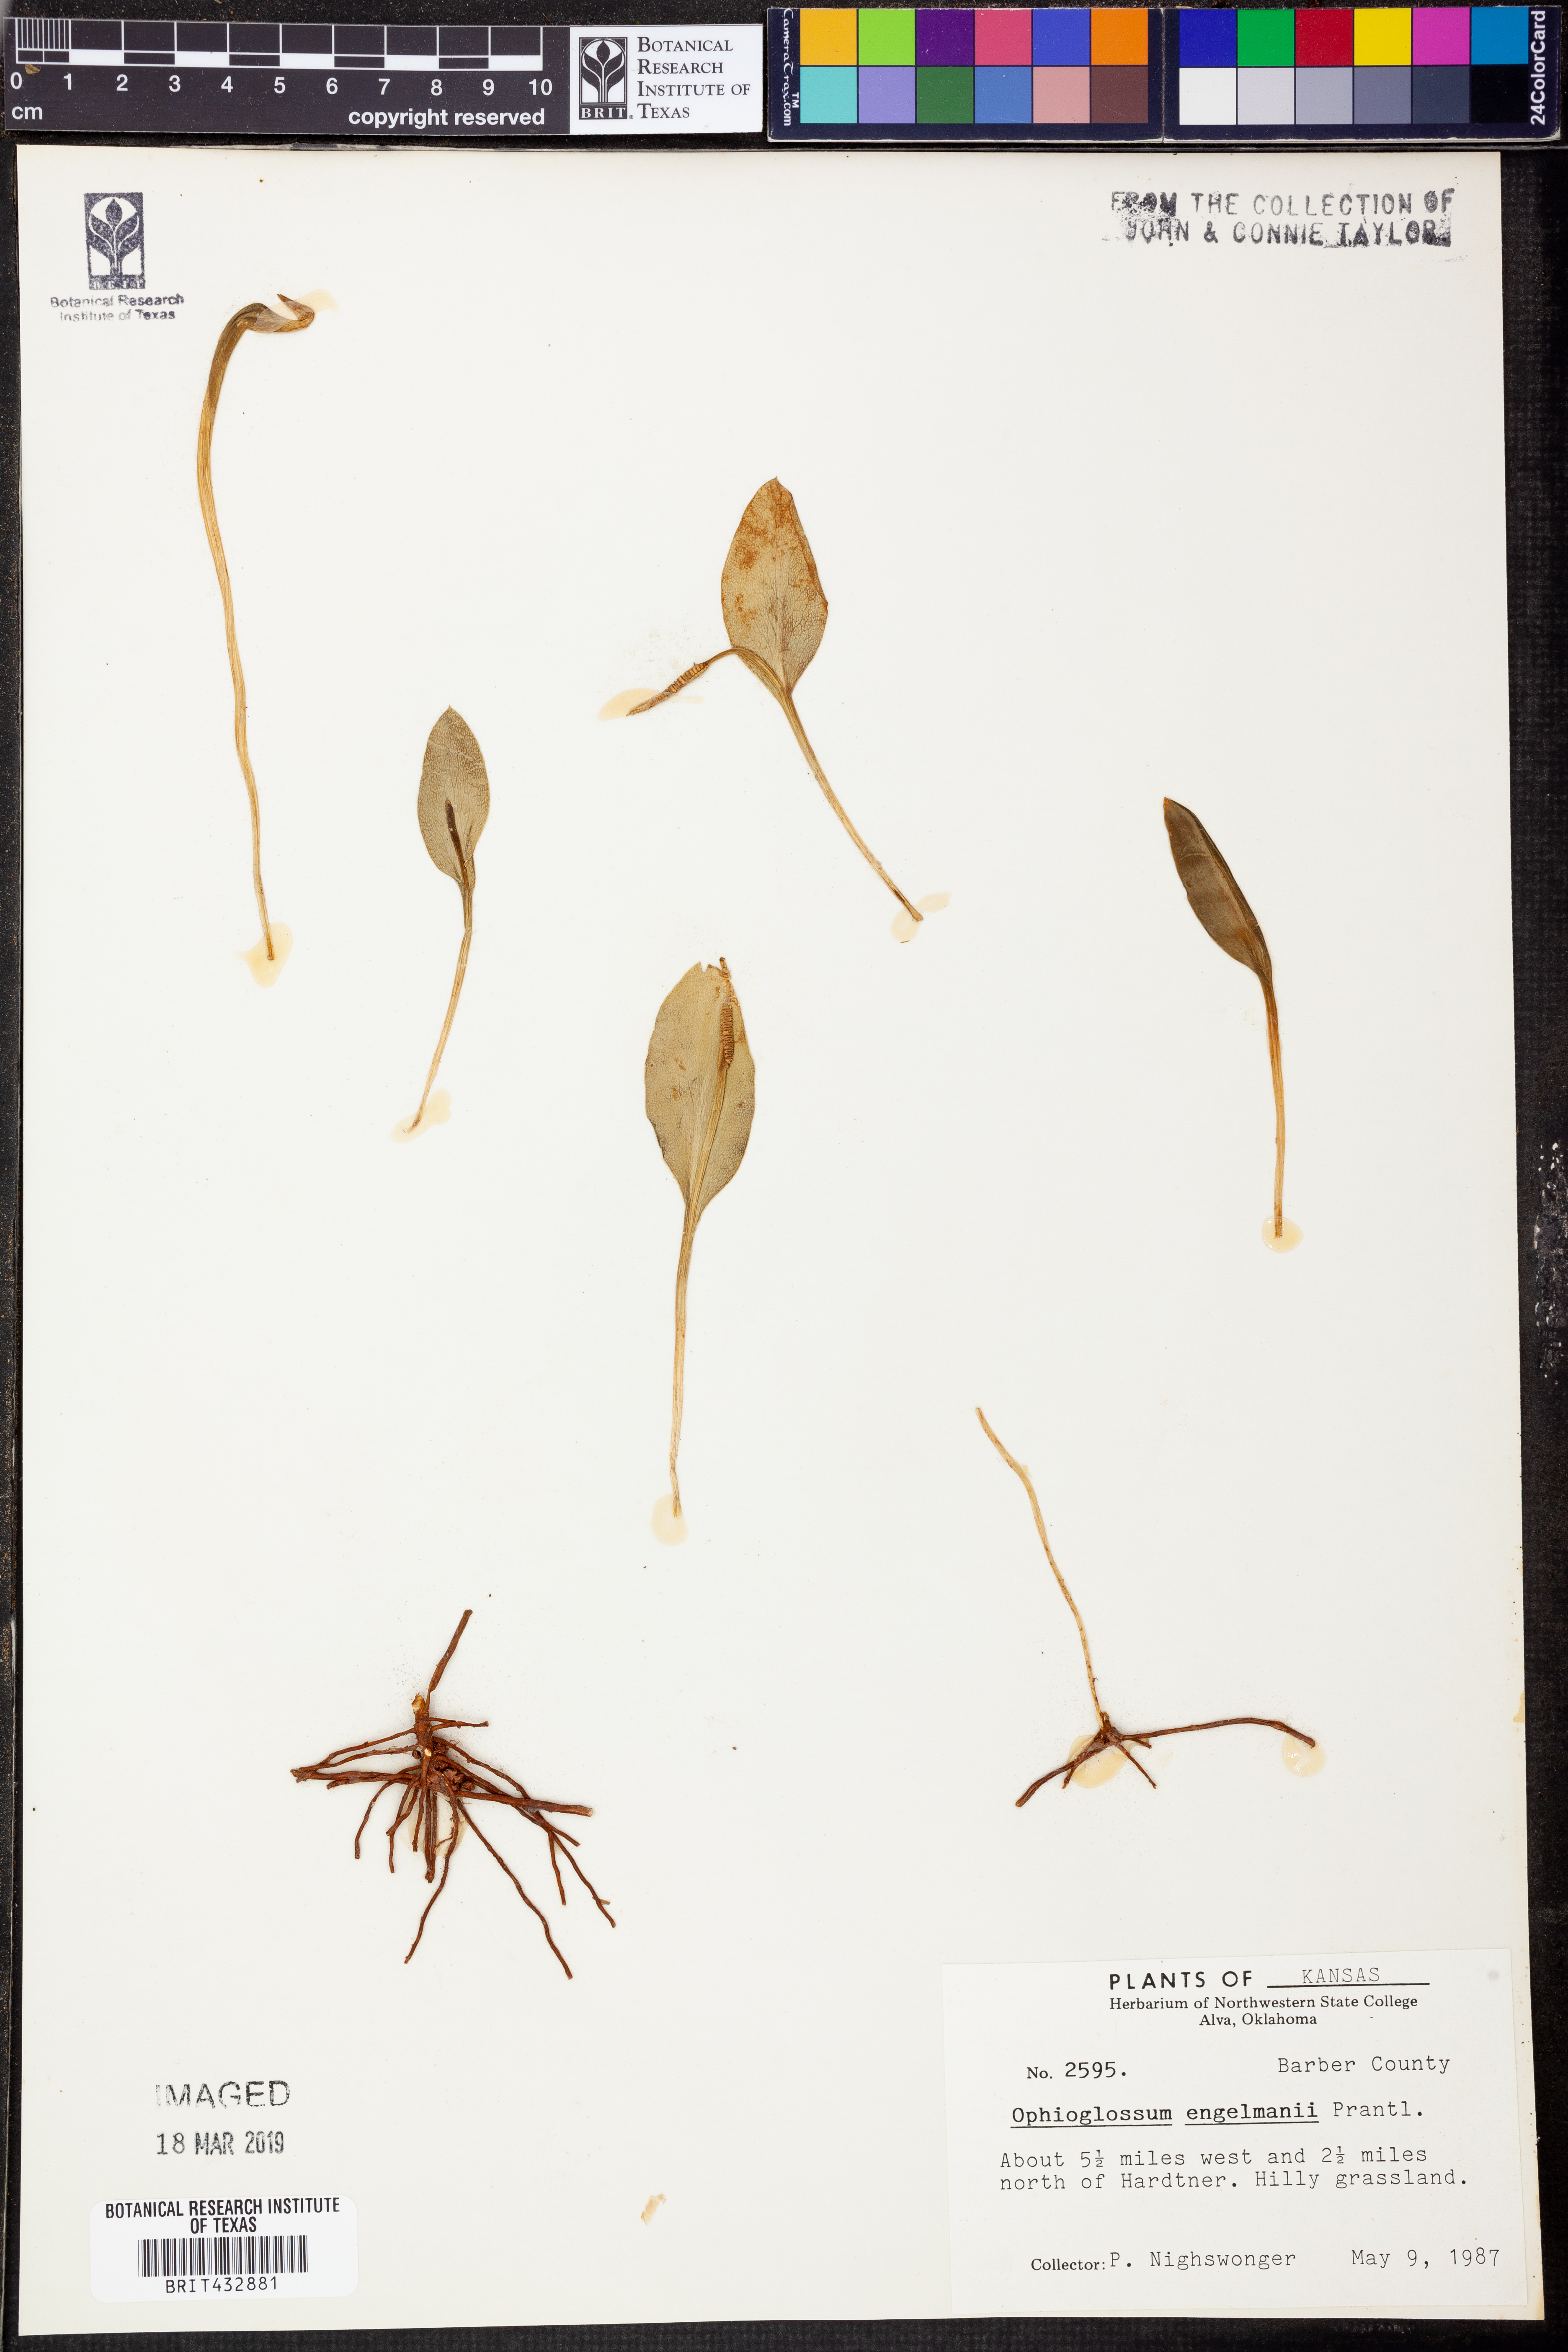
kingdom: Plantae
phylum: Tracheophyta
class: Polypodiopsida
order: Ophioglossales
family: Ophioglossaceae
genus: Ophioglossum
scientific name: Ophioglossum engelmannii
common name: Limestone adder's-tongue
